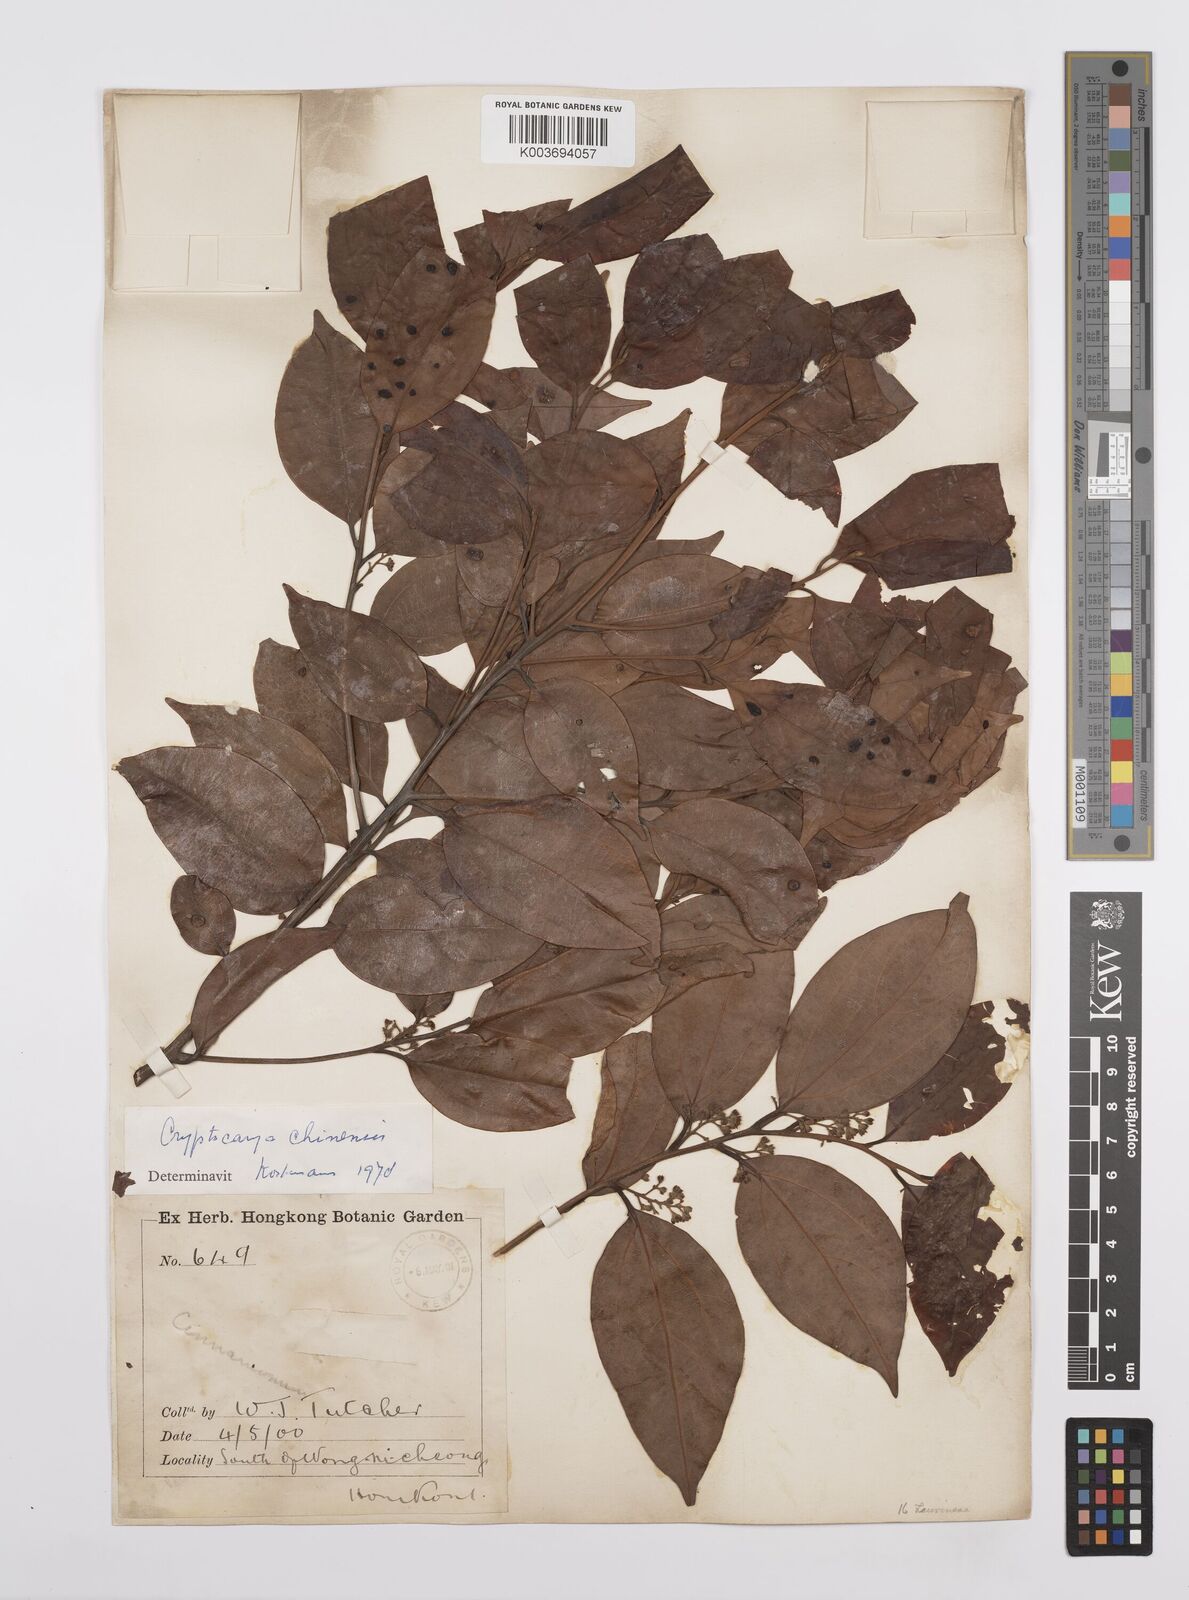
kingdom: Plantae
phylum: Tracheophyta
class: Magnoliopsida
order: Laurales
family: Lauraceae
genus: Cryptocarya
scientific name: Cryptocarya chinensis
